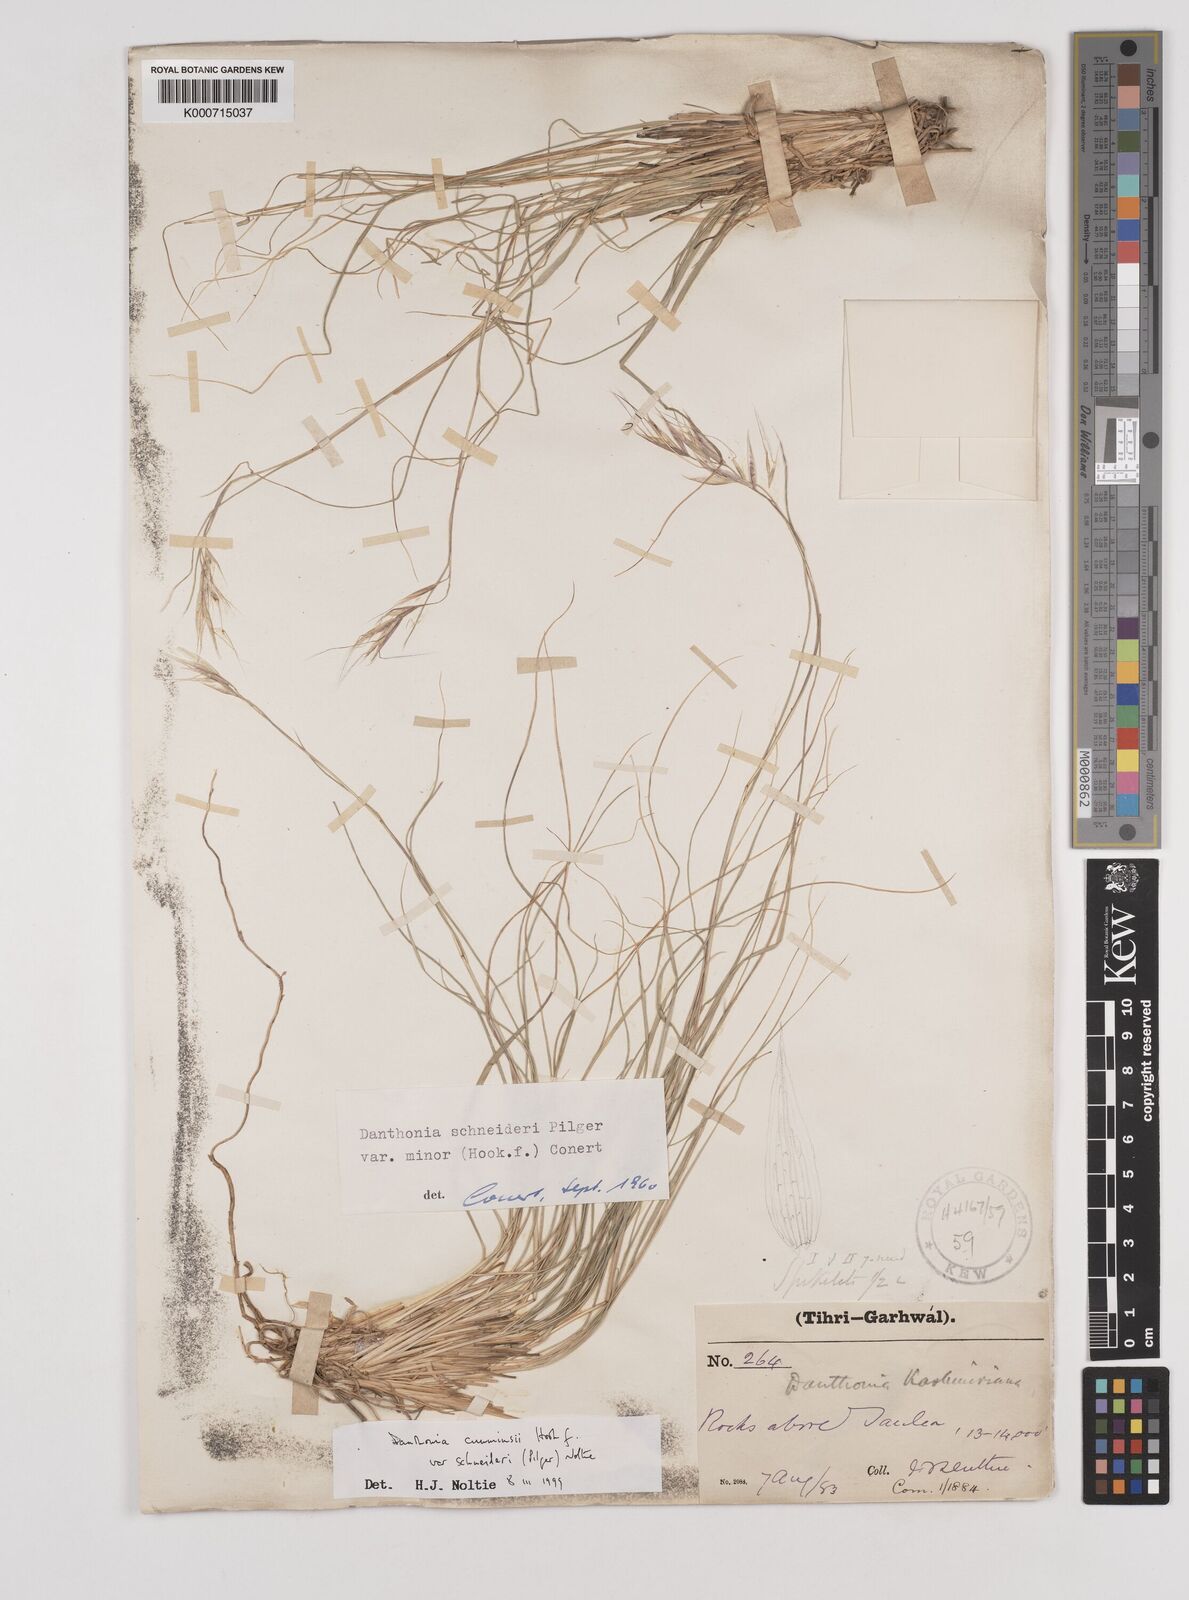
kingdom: Plantae
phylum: Tracheophyta
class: Liliopsida
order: Poales
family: Poaceae
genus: Rytidosperma
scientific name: Rytidosperma
